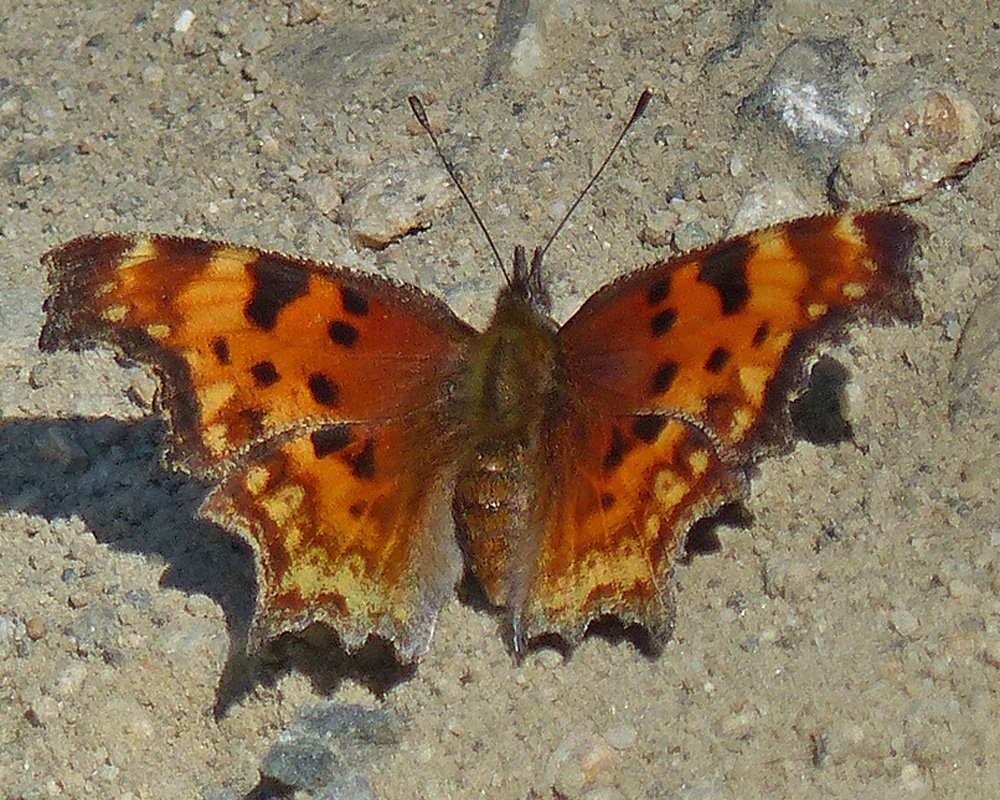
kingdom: Animalia
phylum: Arthropoda
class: Insecta
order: Lepidoptera
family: Nymphalidae
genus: Polygonia
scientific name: Polygonia gracilis
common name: Hoary Comma
